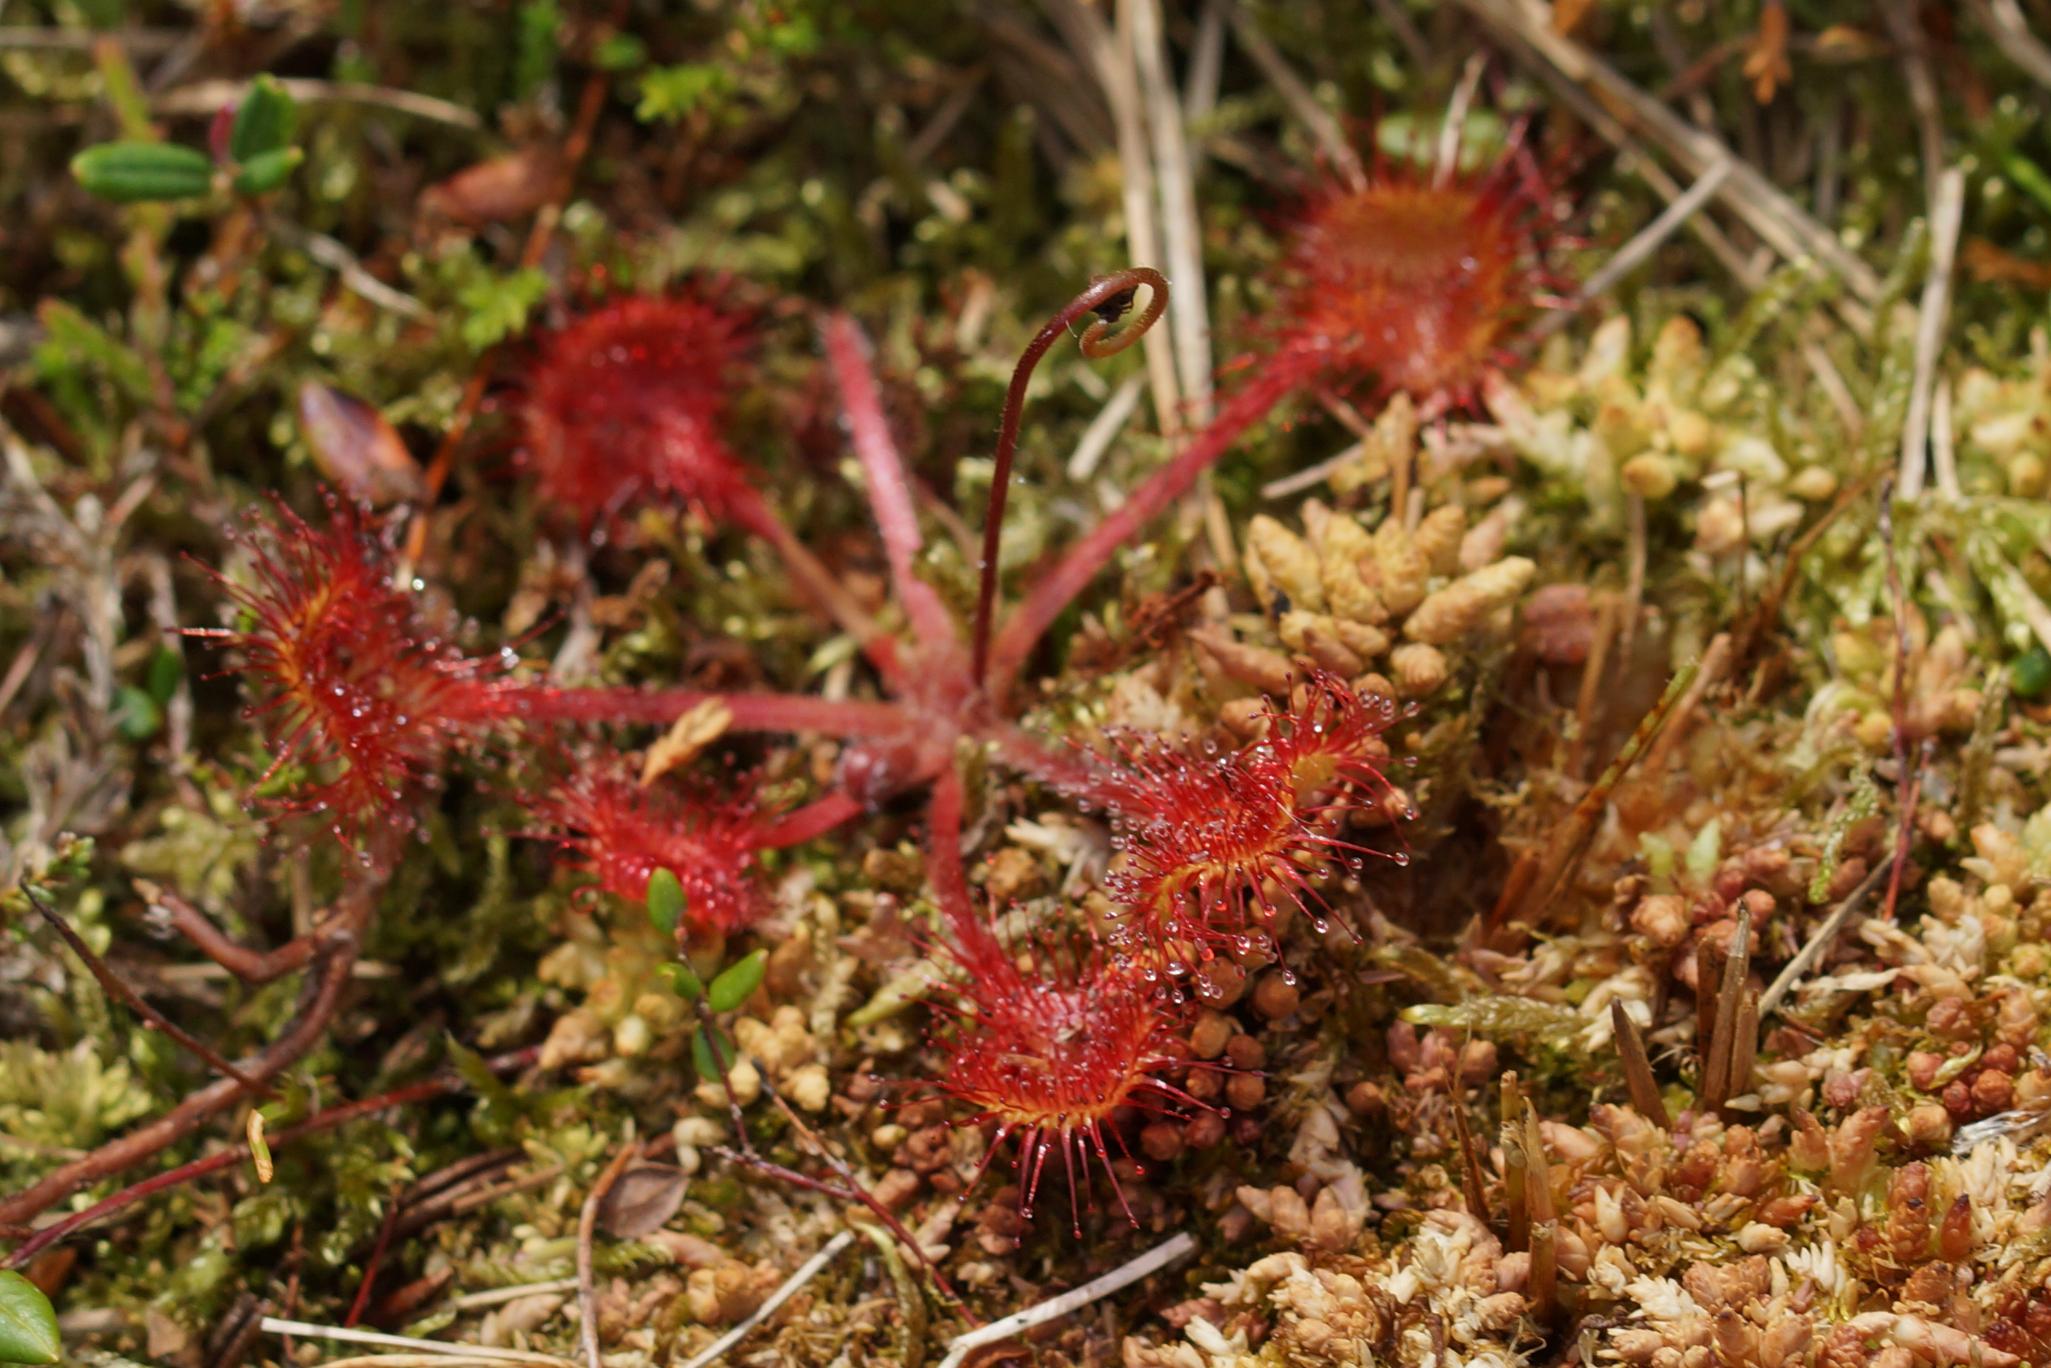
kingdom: Plantae
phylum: Tracheophyta
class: Magnoliopsida
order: Caryophyllales
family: Droseraceae
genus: Drosera
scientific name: Drosera rotundifolia
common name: Rundbladet soldug
